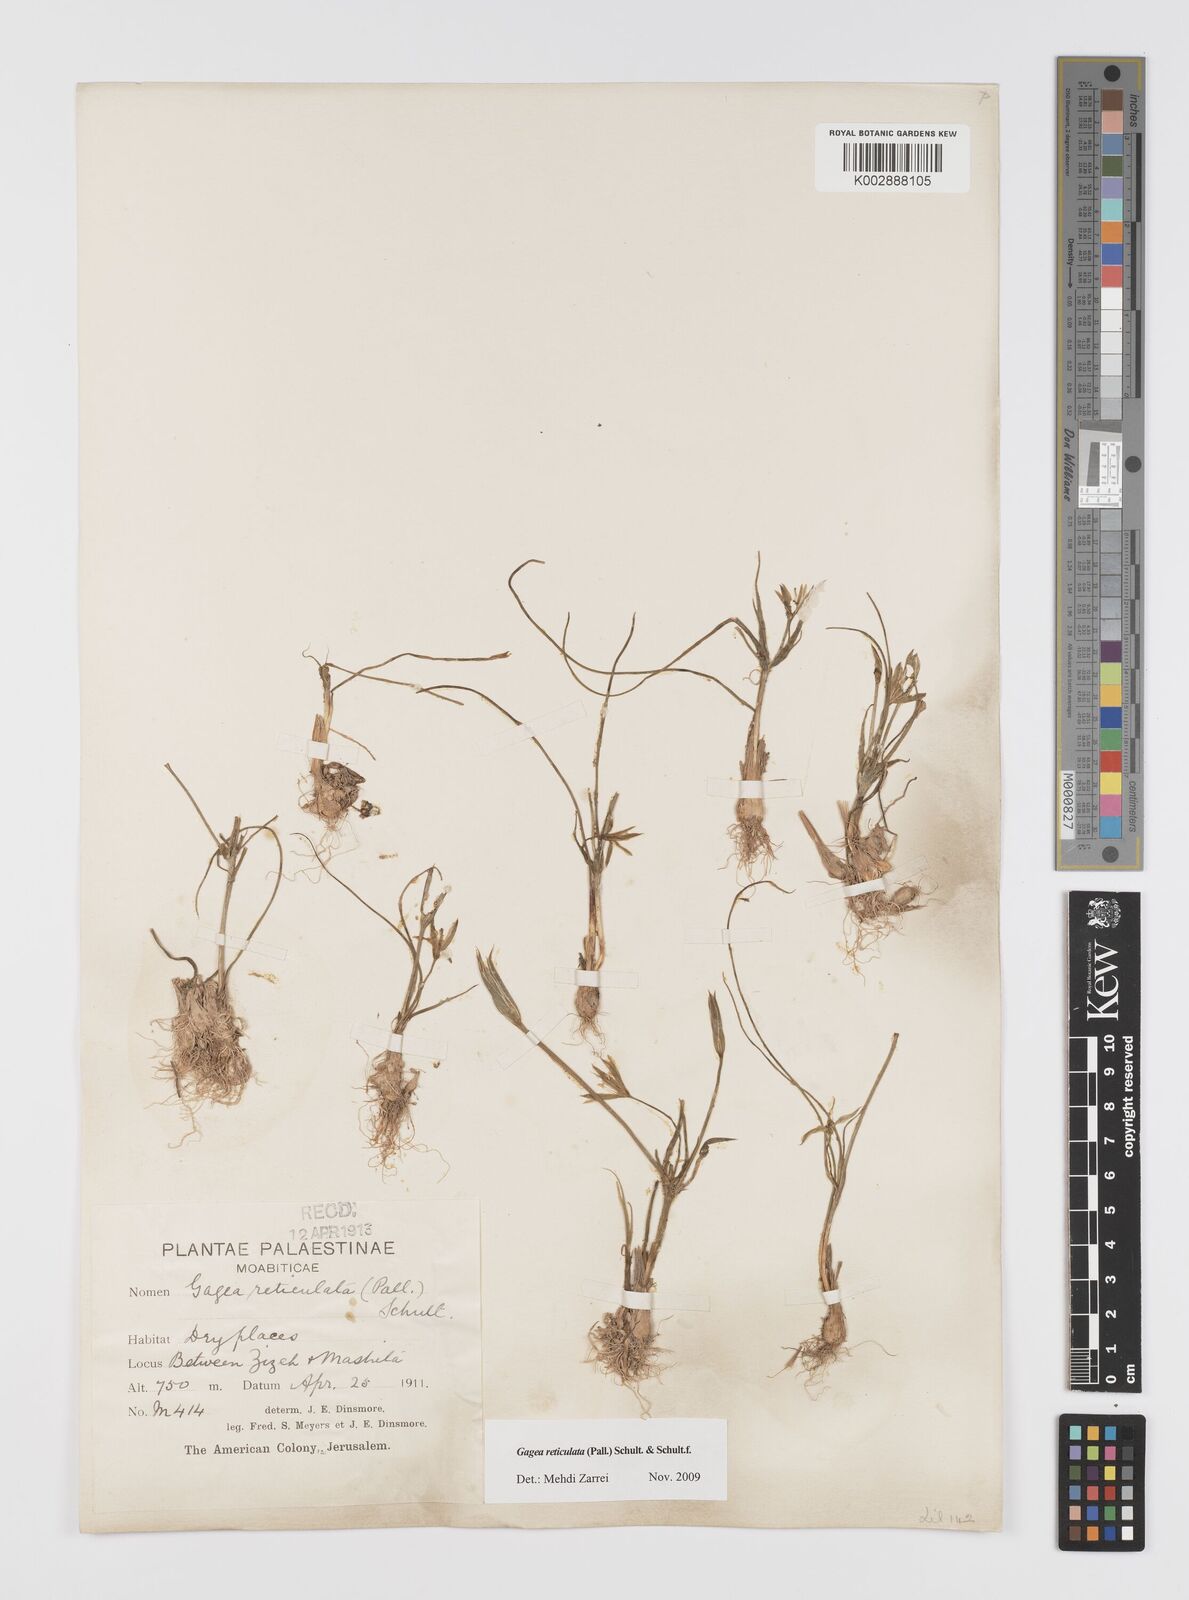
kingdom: Plantae
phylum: Tracheophyta
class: Liliopsida
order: Liliales
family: Liliaceae
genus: Gagea
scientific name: Gagea reticulata
